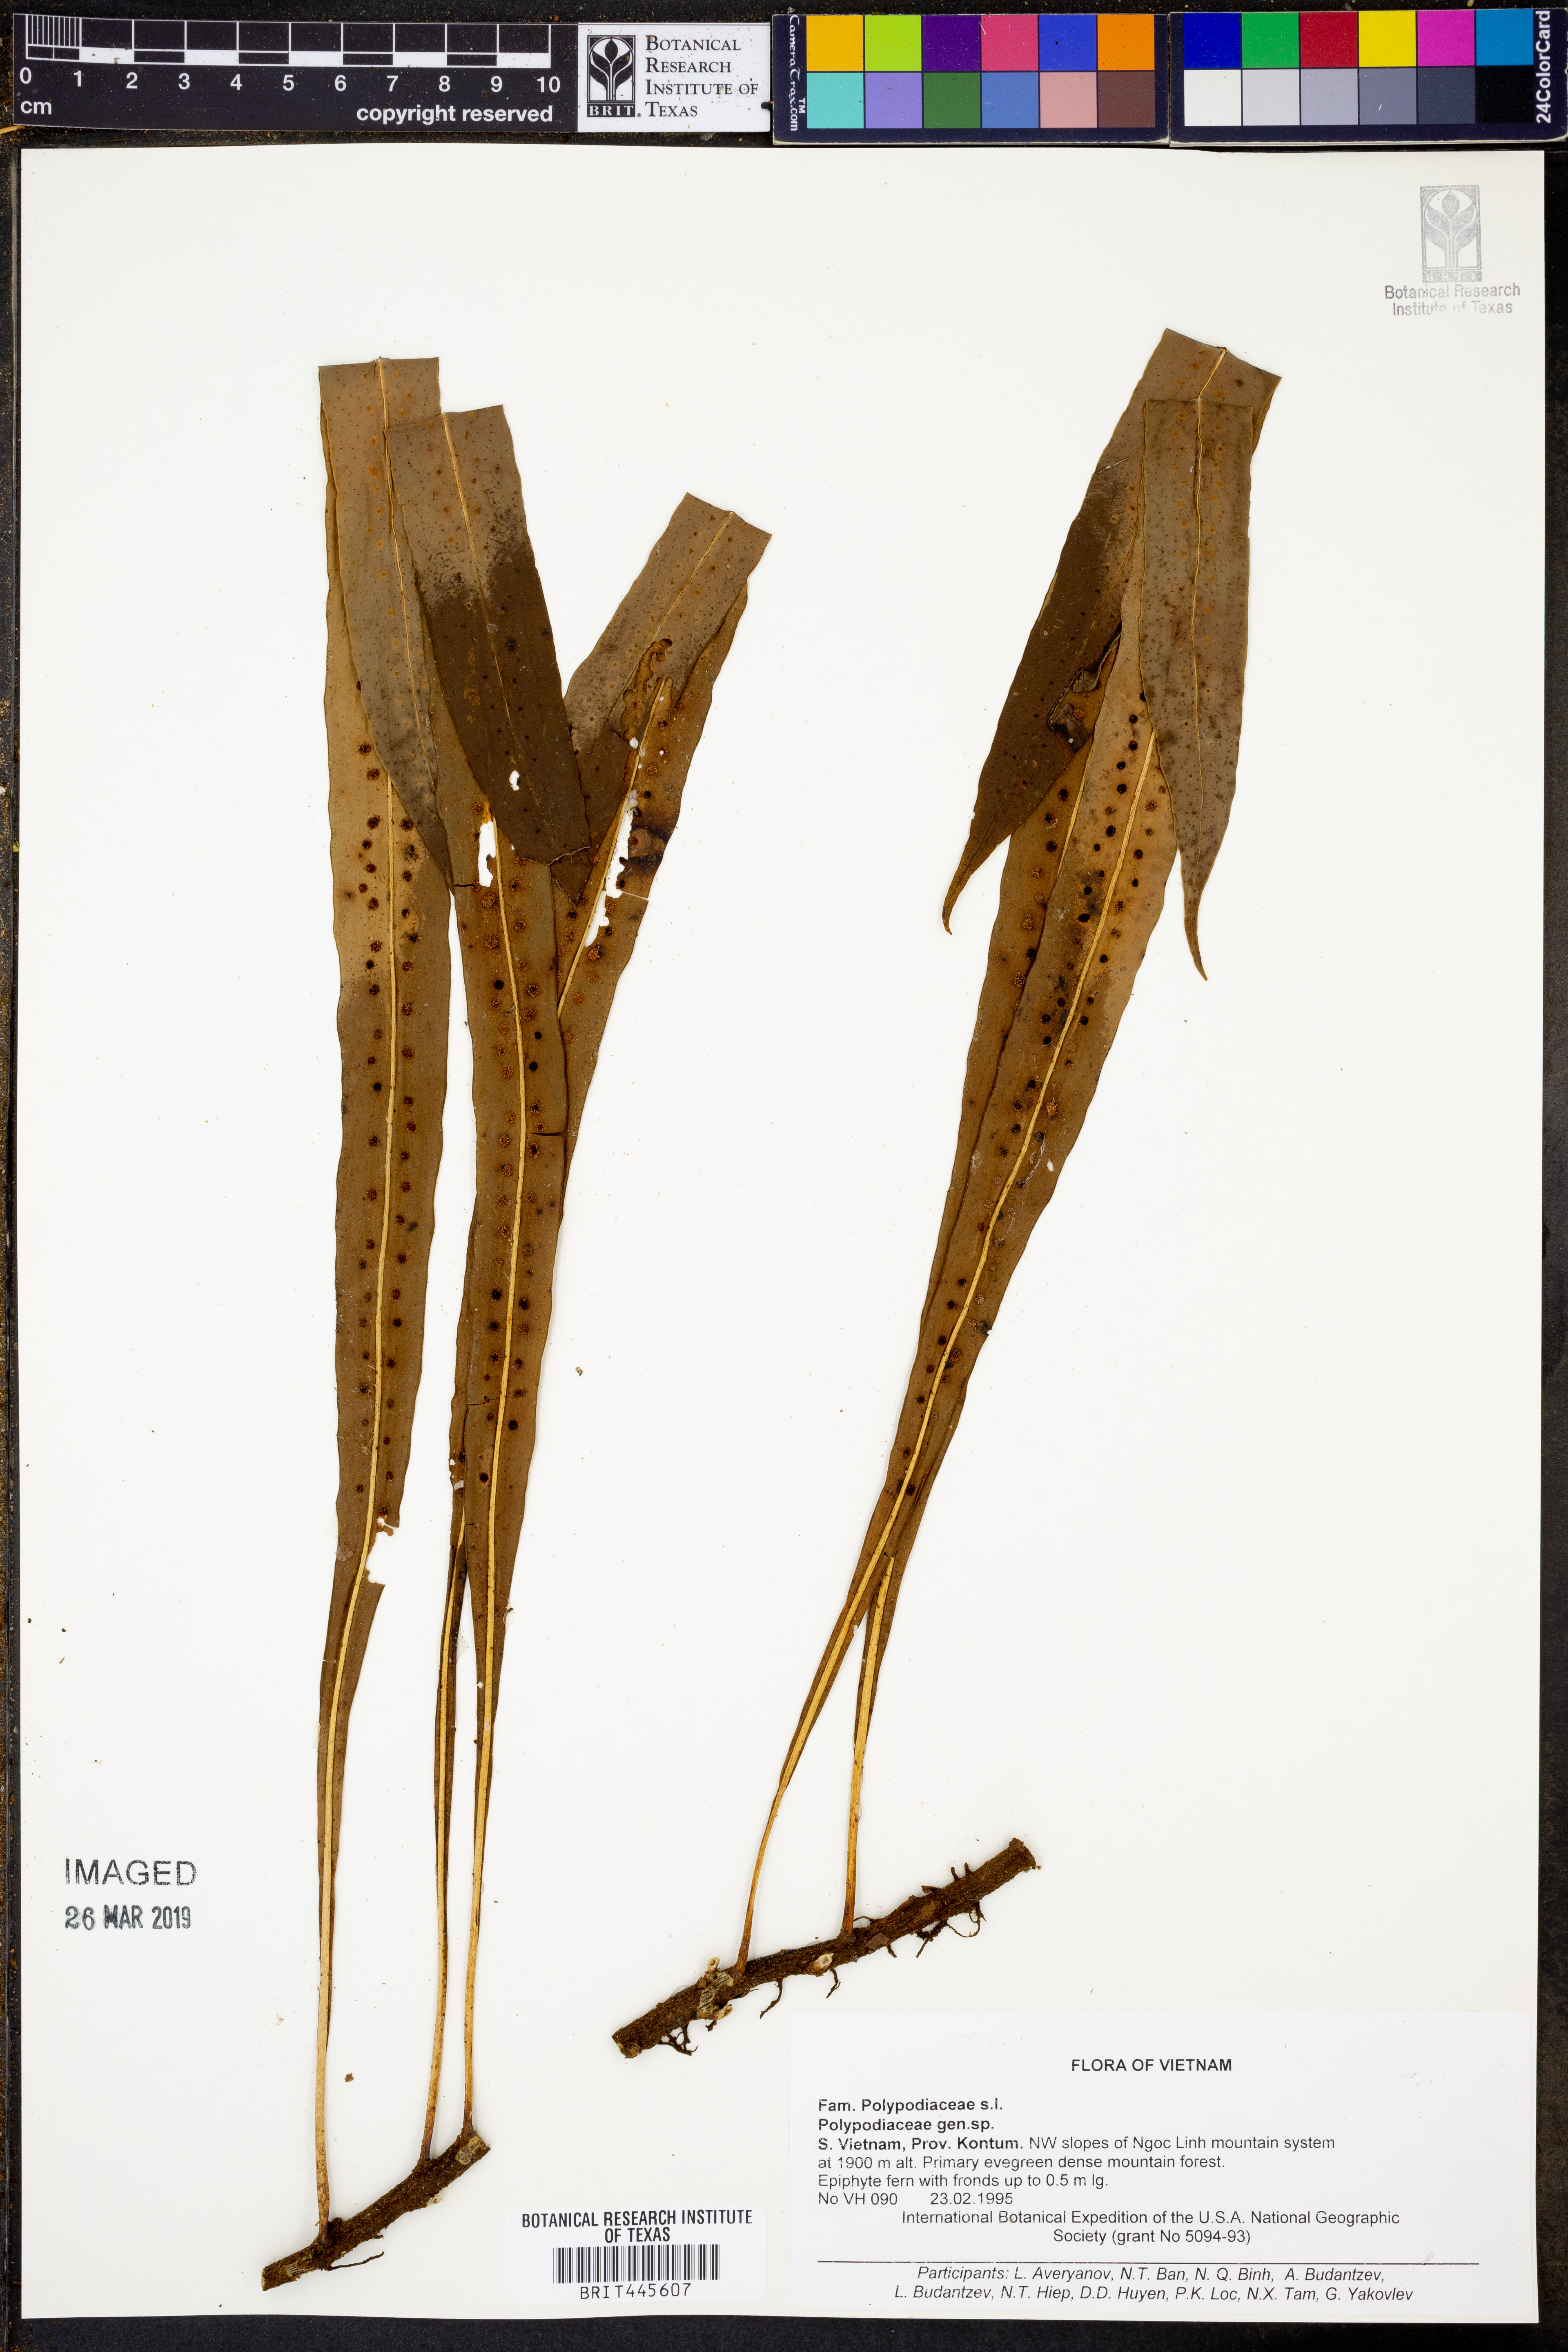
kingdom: Plantae
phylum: Tracheophyta
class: Polypodiopsida
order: Polypodiales
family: Polypodiaceae
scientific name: Polypodiaceae
